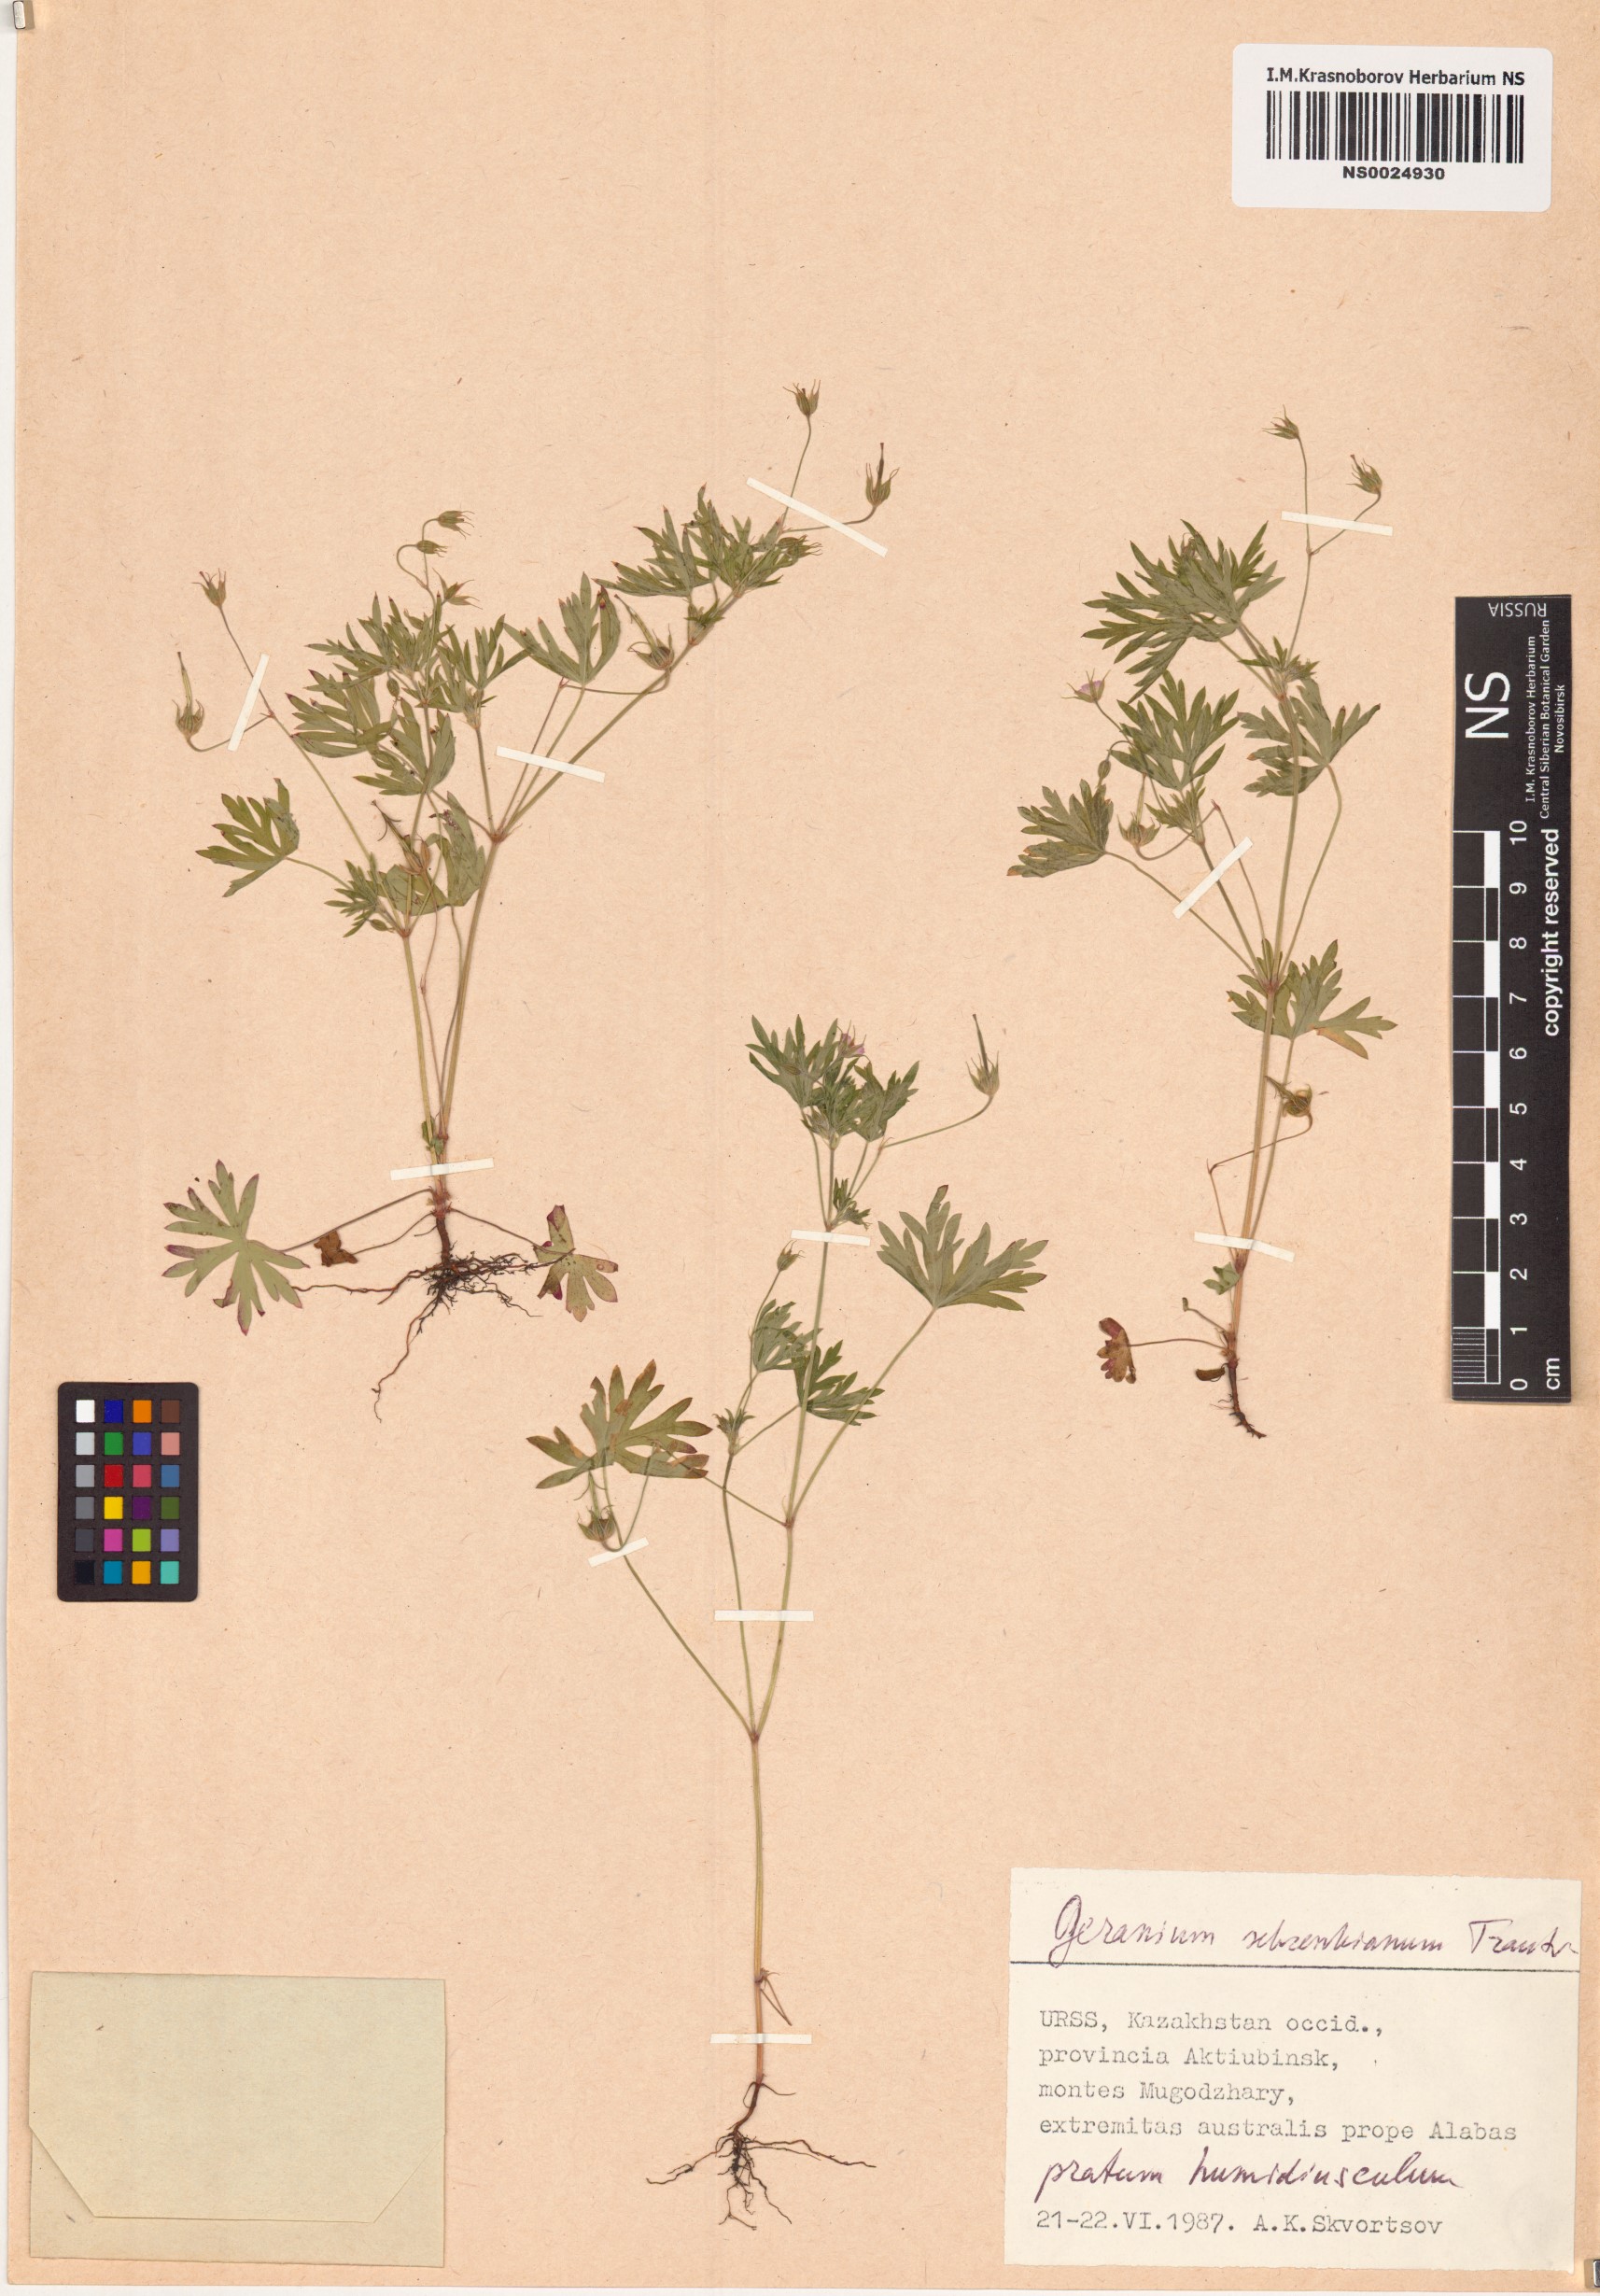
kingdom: Plantae
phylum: Tracheophyta
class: Magnoliopsida
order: Geraniales
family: Geraniaceae
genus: Geranium
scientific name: Geranium schrenkianum
